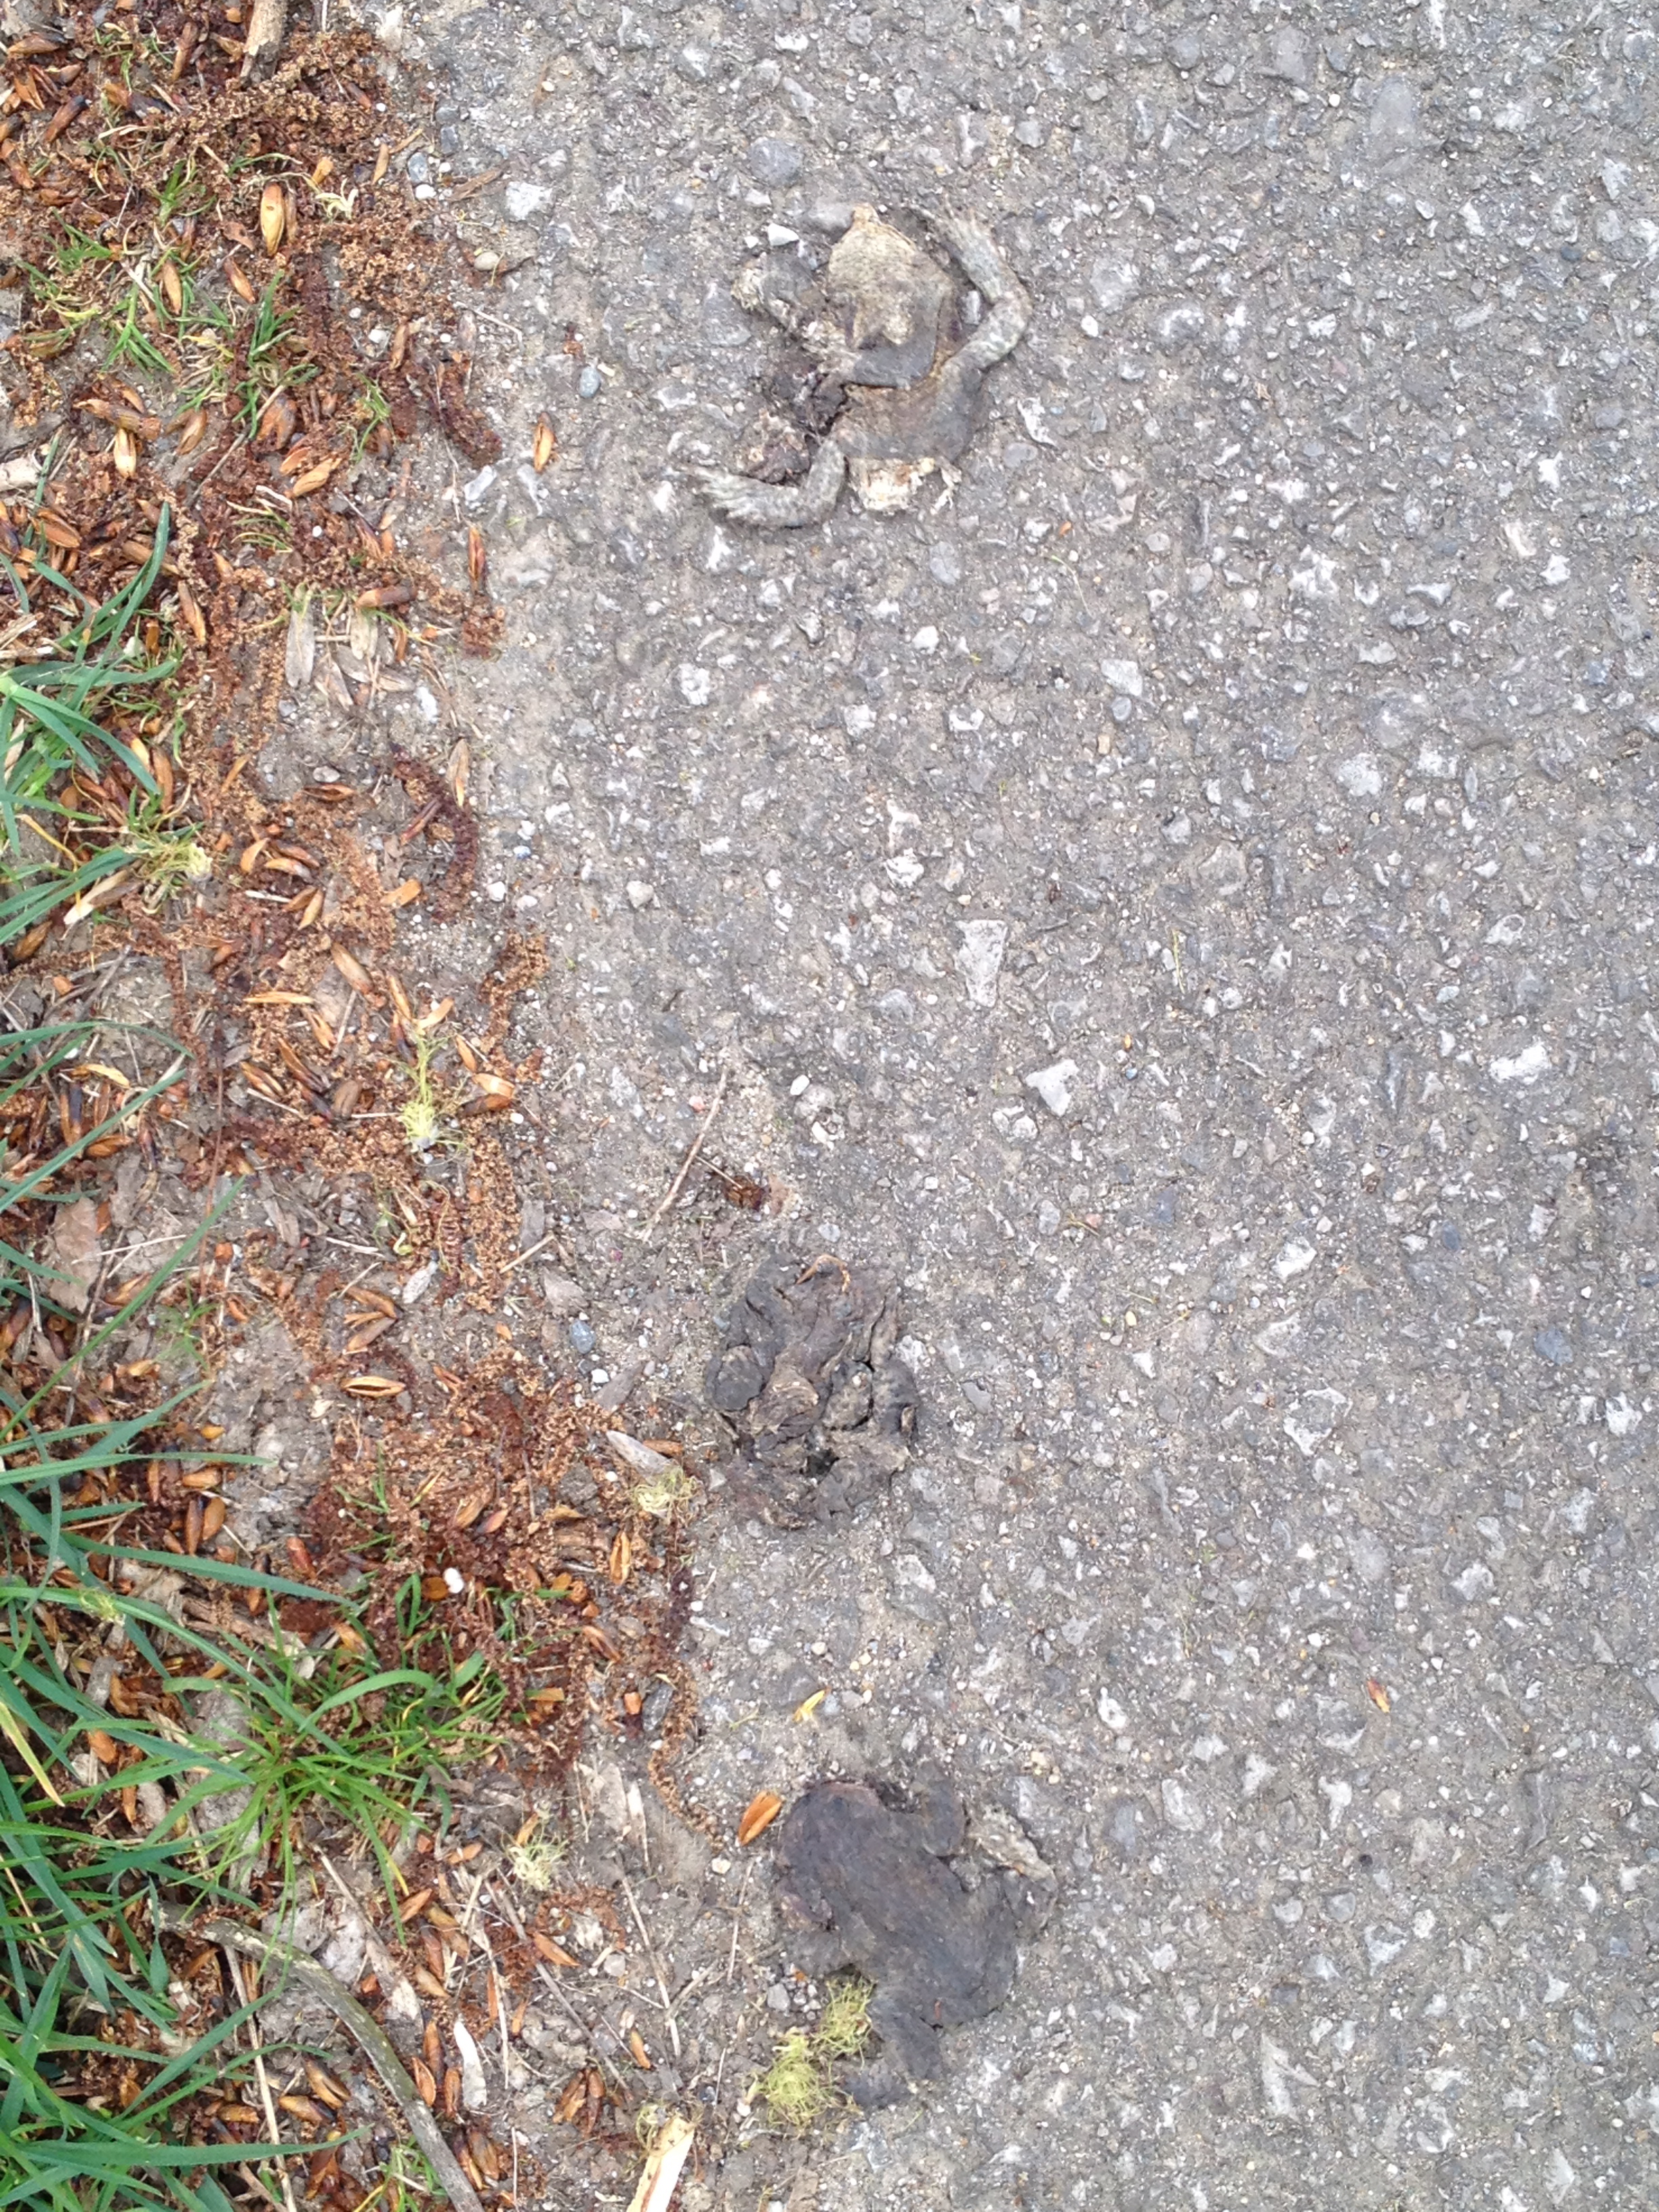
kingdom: Animalia
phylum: Chordata
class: Amphibia
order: Anura
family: Bufonidae
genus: Bufo
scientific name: Bufo bufo
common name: Common toad
